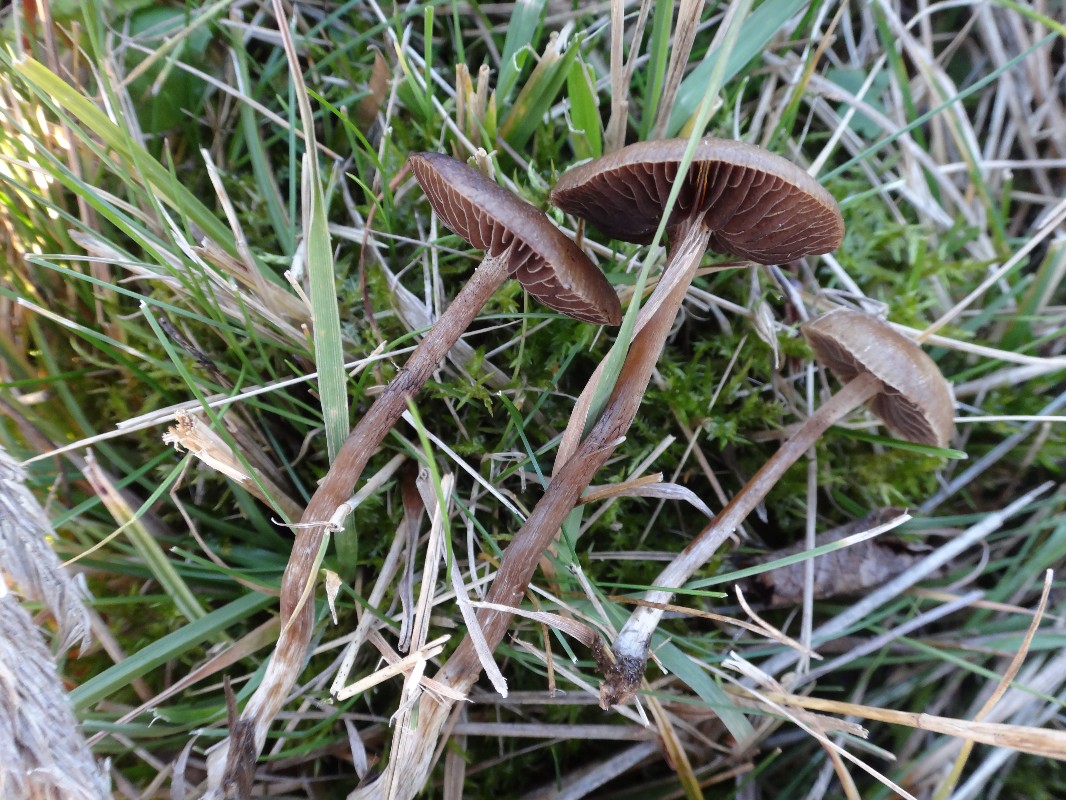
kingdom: Fungi
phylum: Basidiomycota
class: Agaricomycetes
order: Agaricales
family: Strophariaceae
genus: Protostropharia
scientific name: Protostropharia semiglobata
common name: halvkugleformet bredblad
